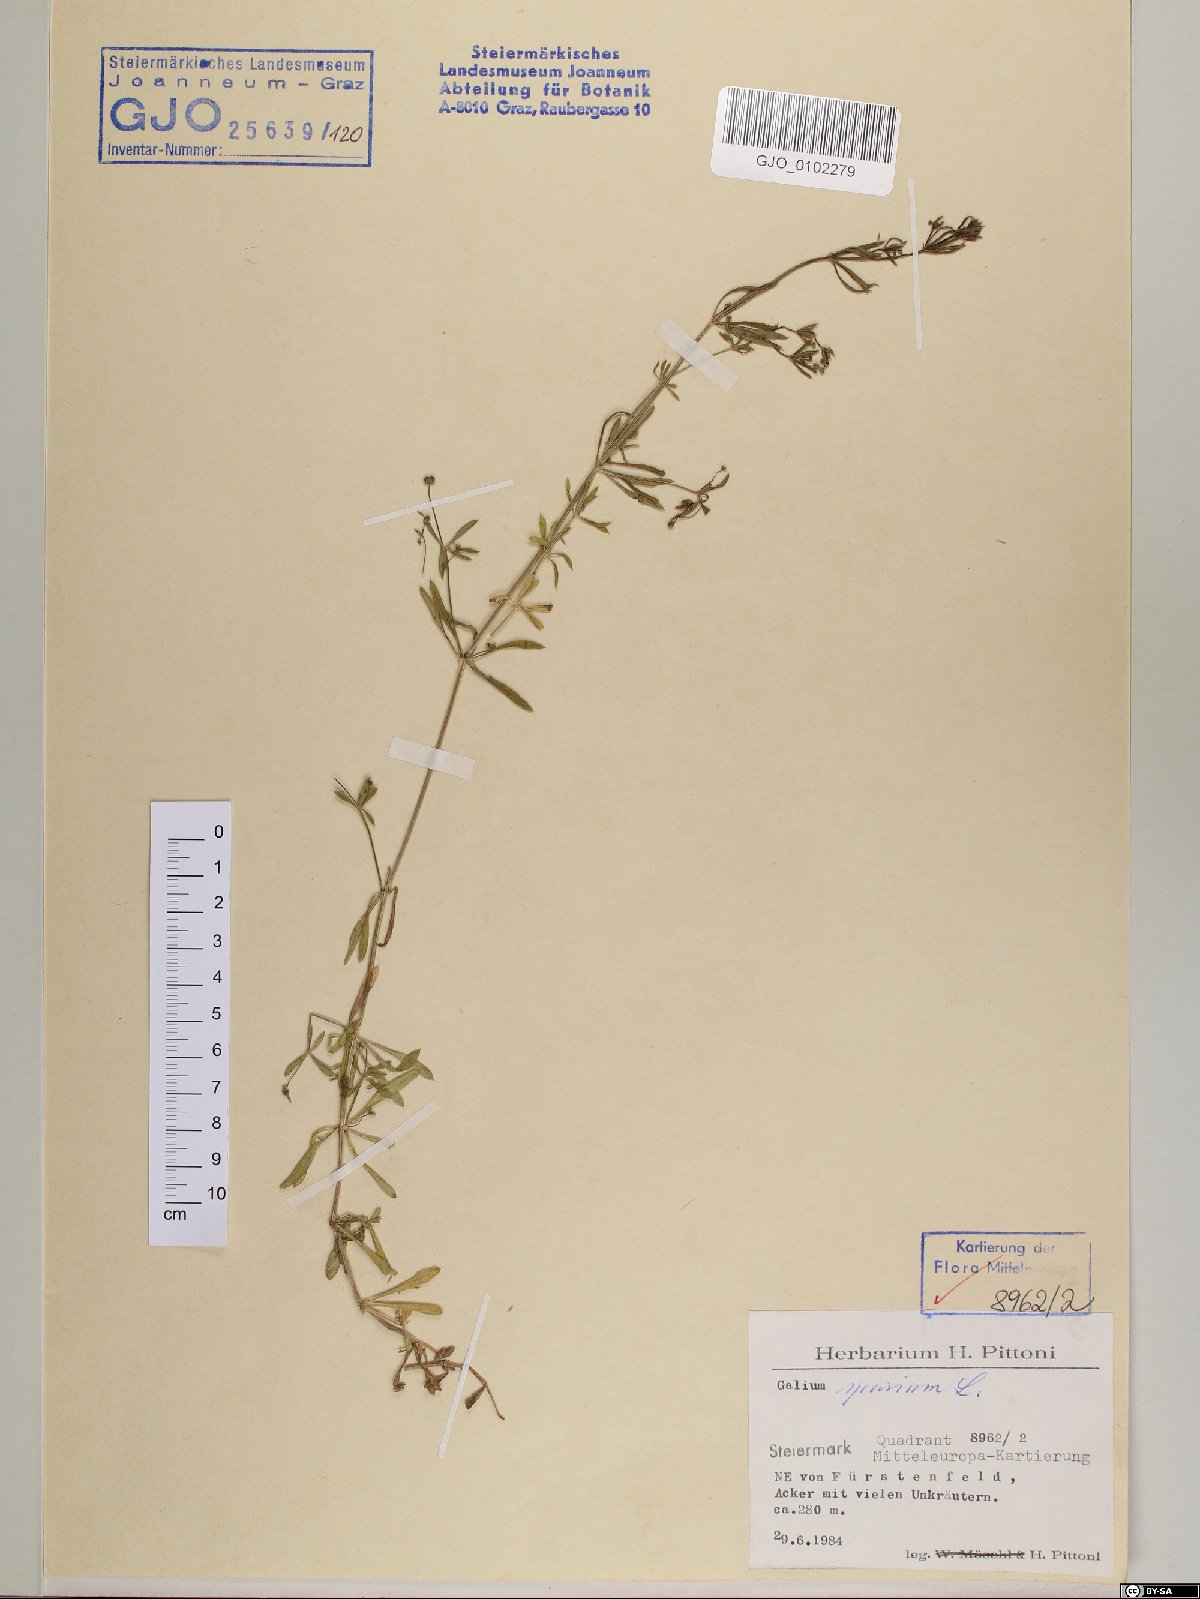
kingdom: Plantae
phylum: Tracheophyta
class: Magnoliopsida
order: Gentianales
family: Rubiaceae
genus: Galium
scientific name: Galium spurium
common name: False cleavers
